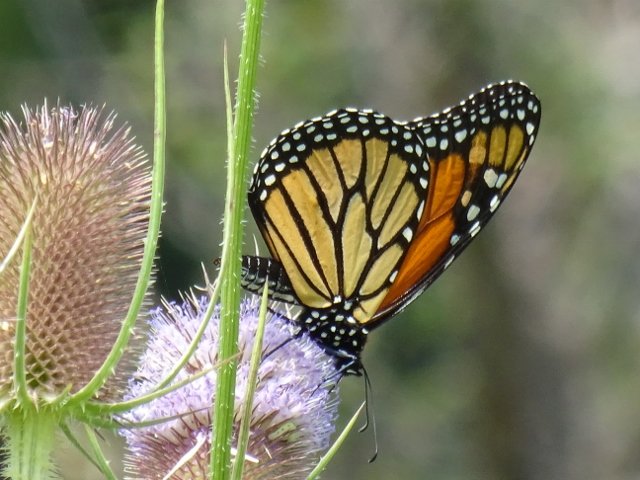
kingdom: Animalia
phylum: Arthropoda
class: Insecta
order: Lepidoptera
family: Nymphalidae
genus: Danaus
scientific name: Danaus plexippus
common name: Monarch
